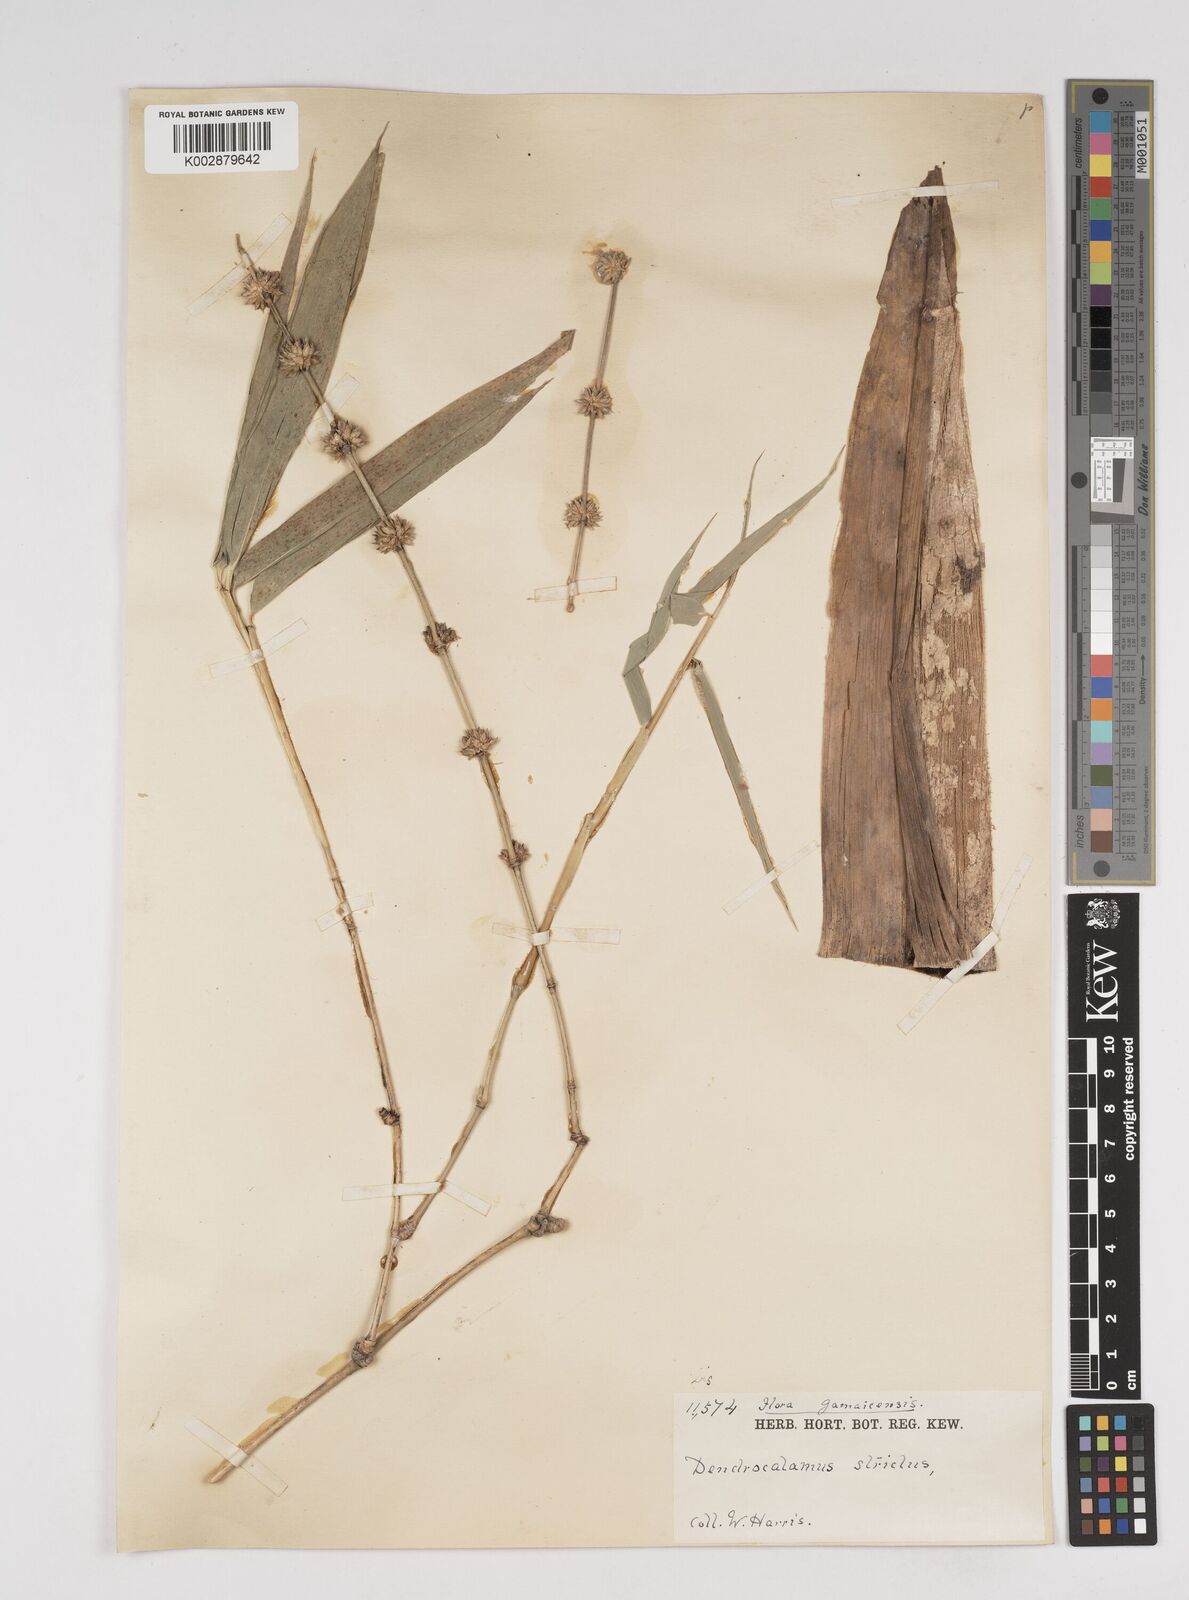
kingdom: Plantae
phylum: Tracheophyta
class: Liliopsida
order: Poales
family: Poaceae
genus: Dendrocalamus
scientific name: Dendrocalamus strictus
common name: Male bamboo
